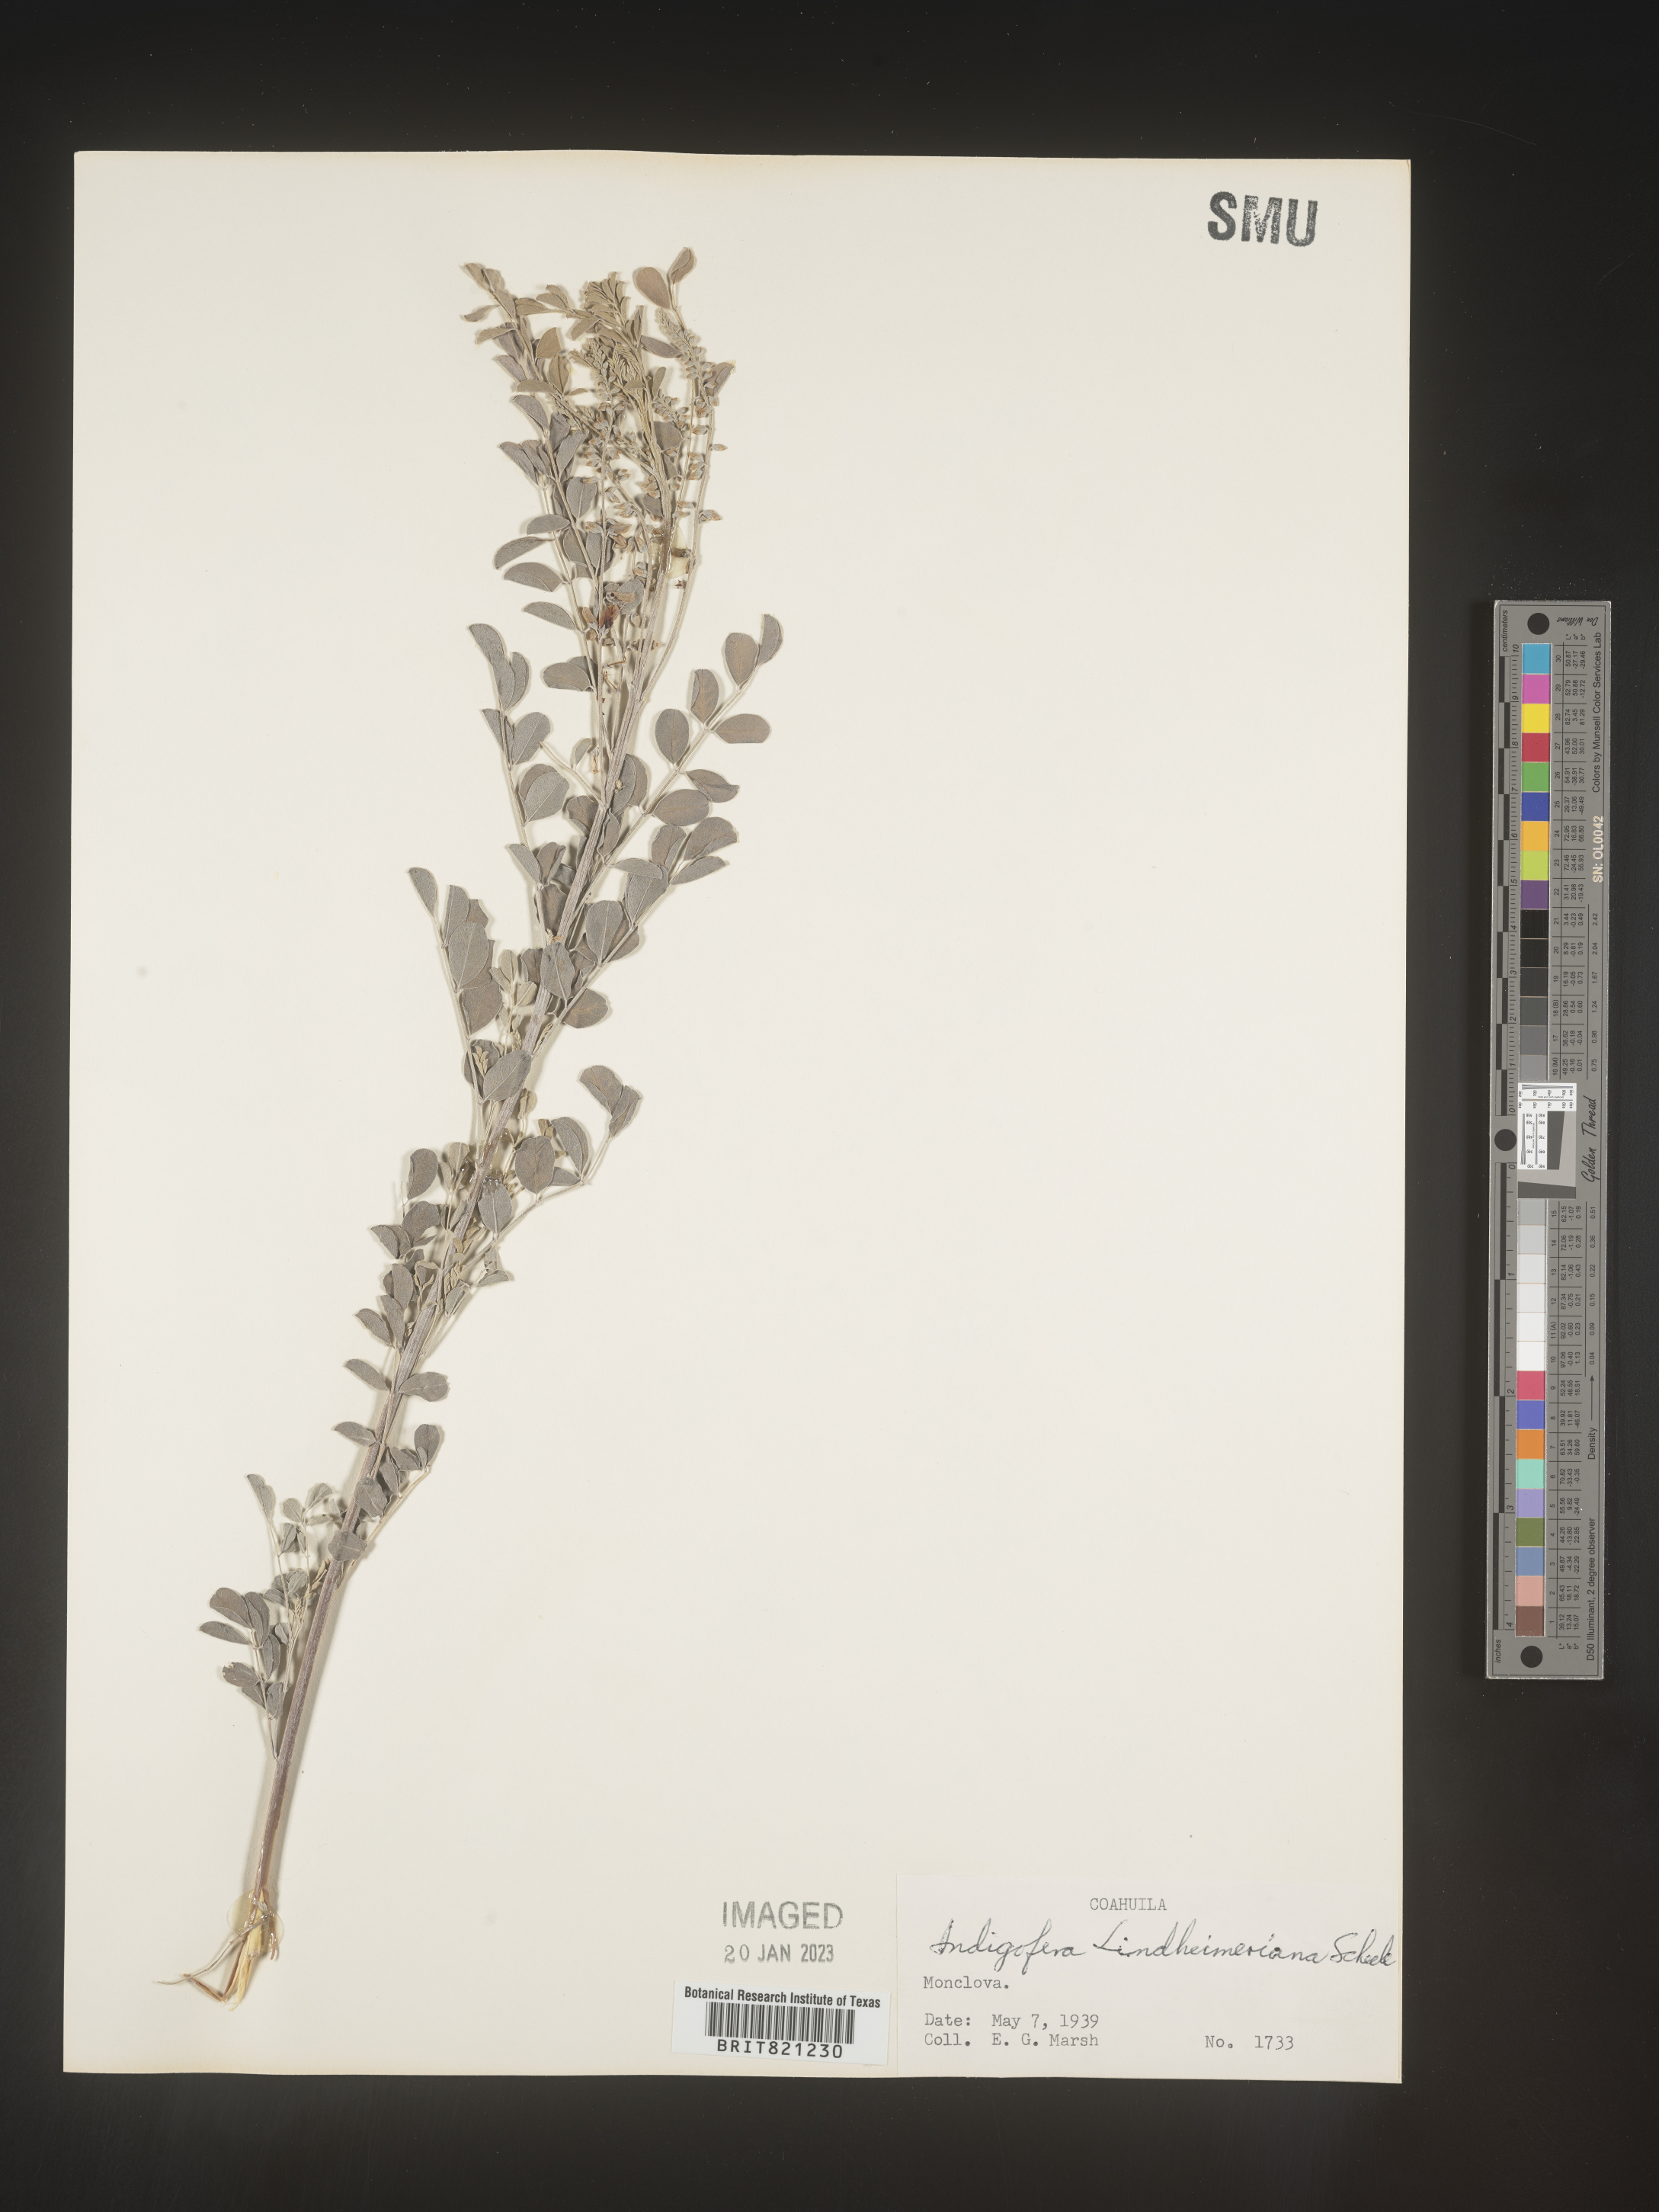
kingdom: Plantae
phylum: Tracheophyta
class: Magnoliopsida
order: Fabales
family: Fabaceae
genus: Indigofera
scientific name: Indigofera
